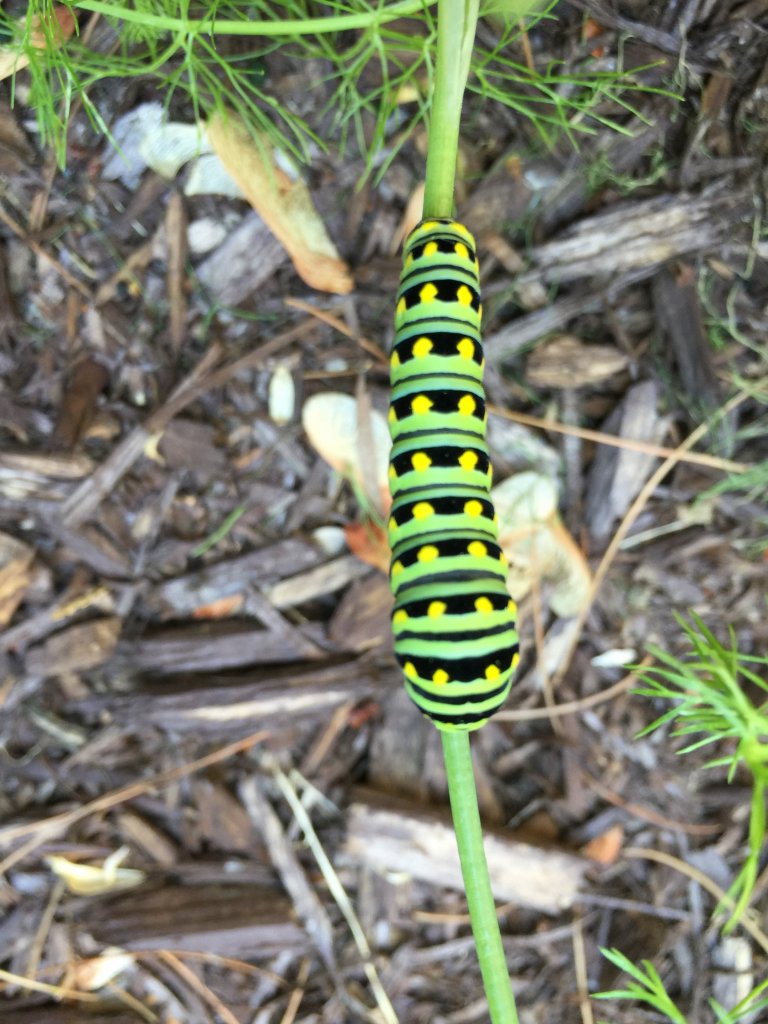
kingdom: Animalia
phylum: Arthropoda
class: Insecta
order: Lepidoptera
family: Papilionidae
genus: Papilio
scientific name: Papilio polyxenes
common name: Black Swallowtail
